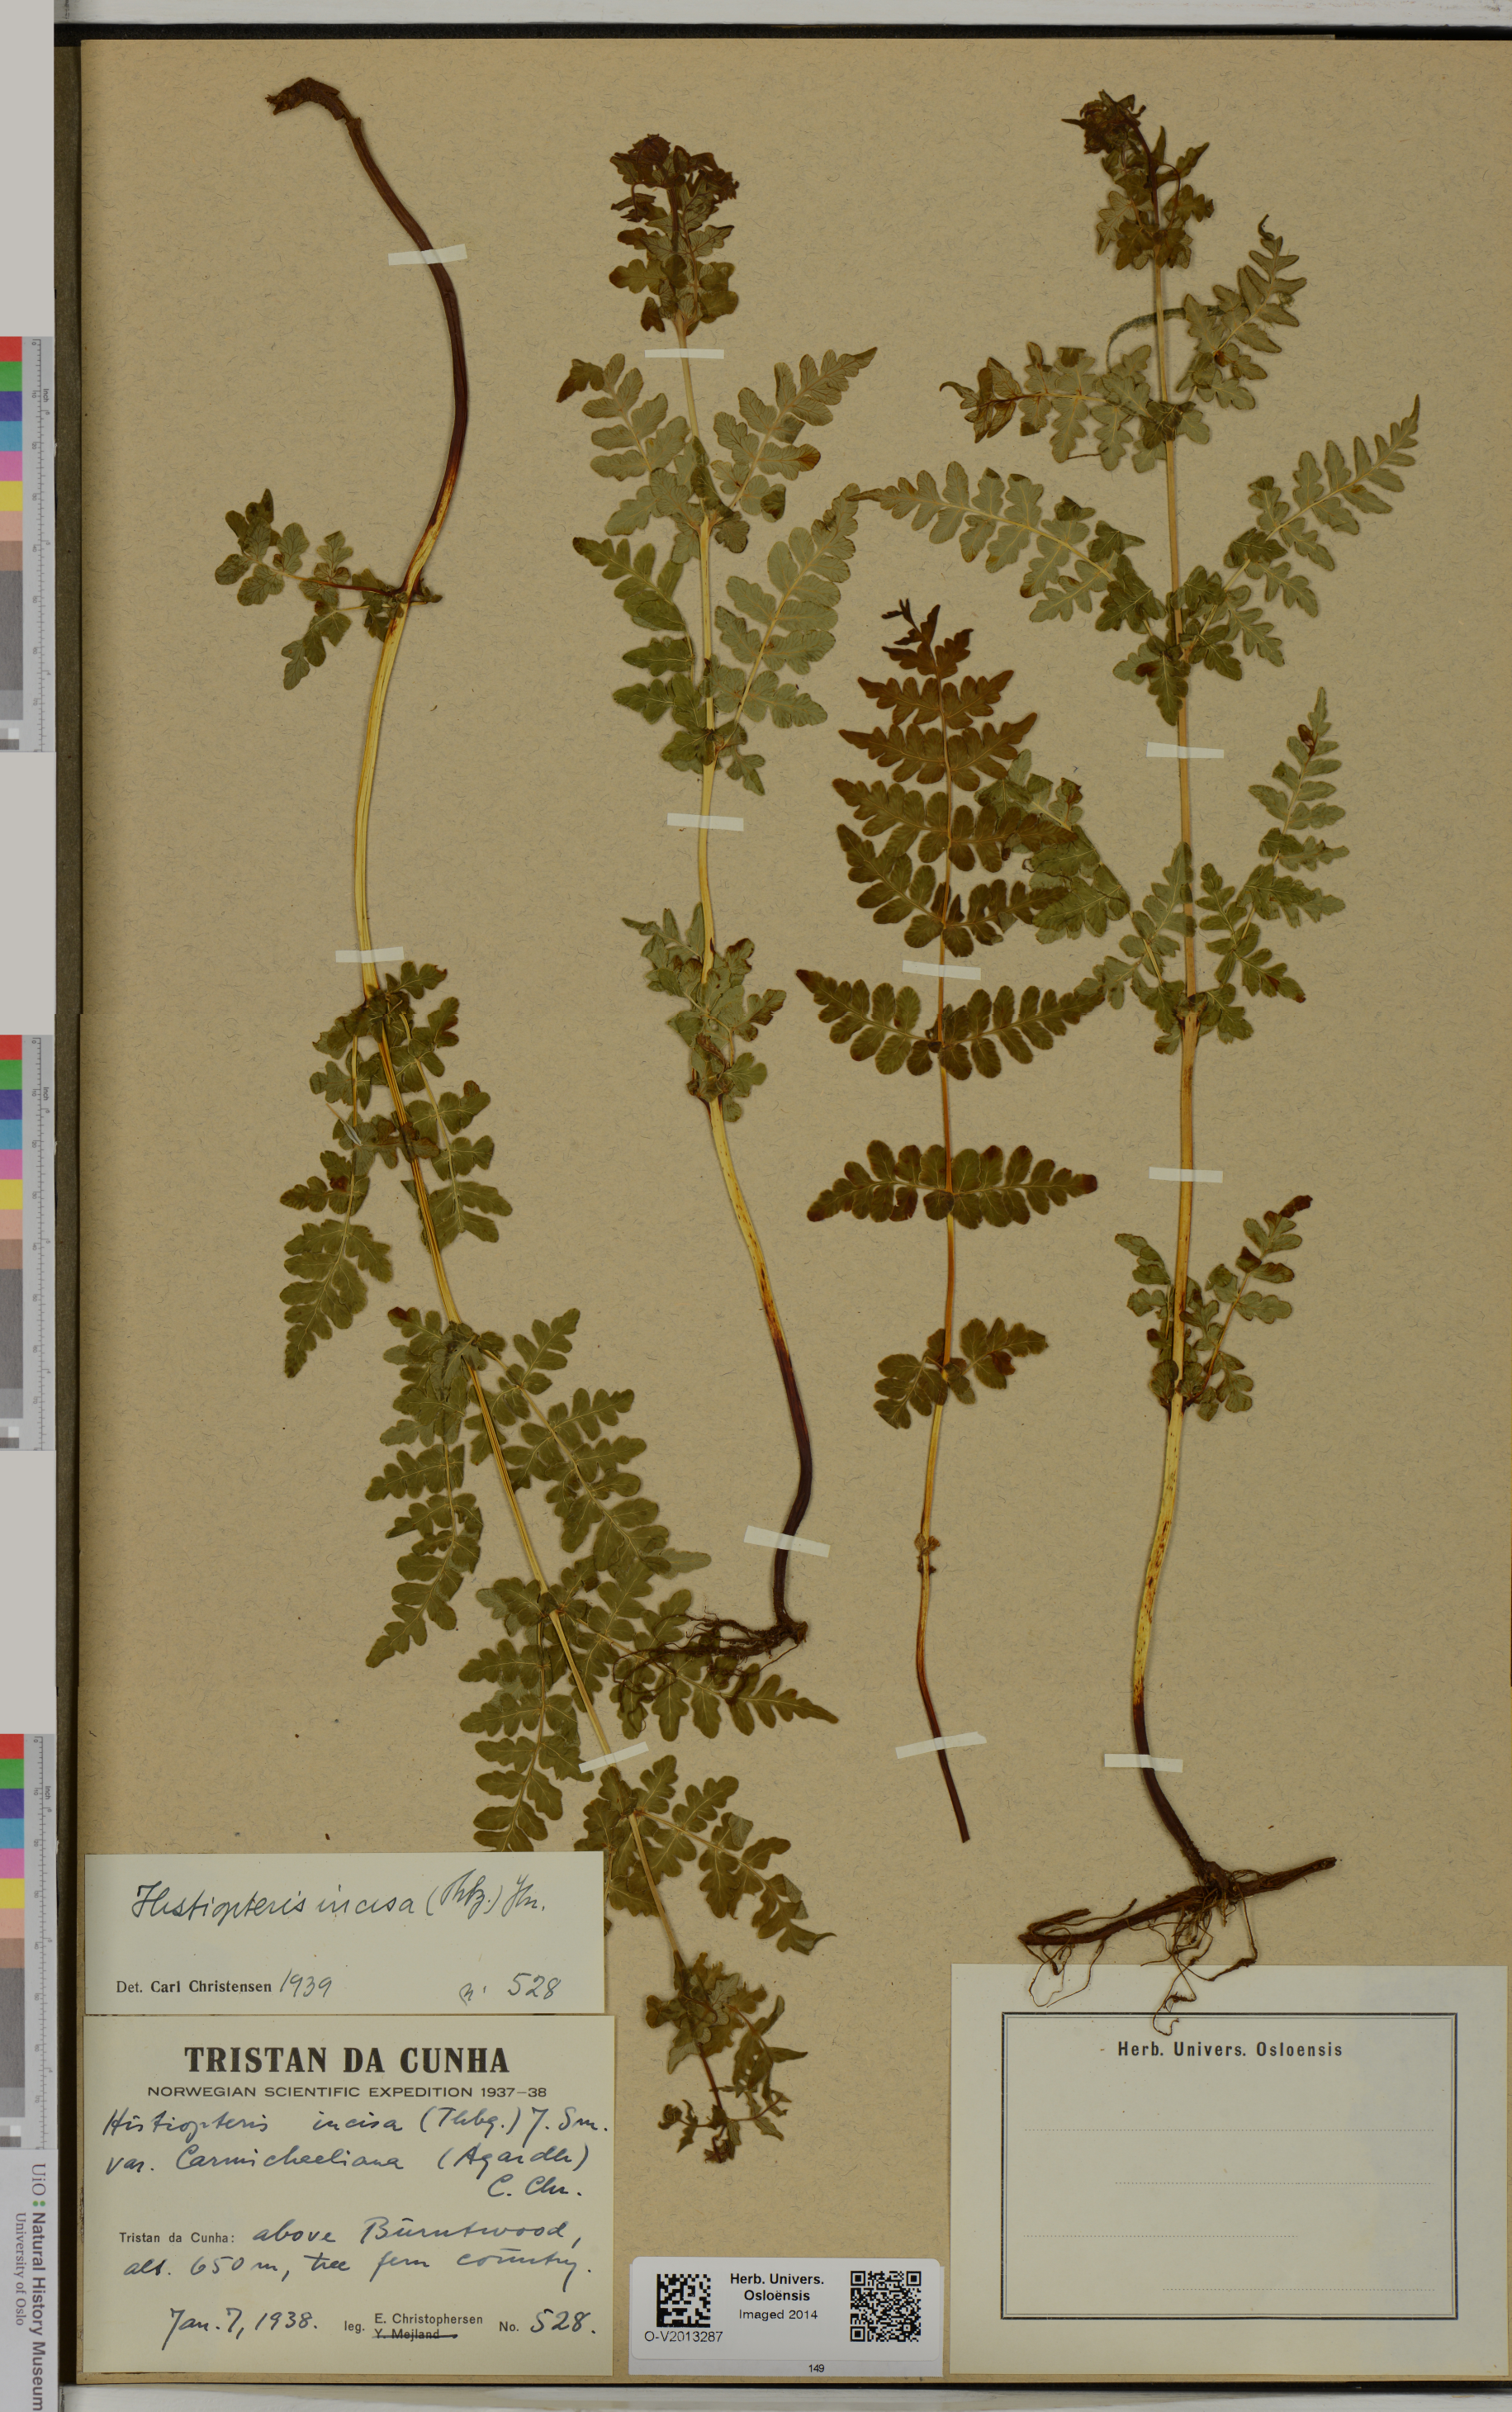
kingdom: Plantae
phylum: Tracheophyta
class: Polypodiopsida
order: Polypodiales
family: Dennstaedtiaceae
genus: Histiopteris
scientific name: Histiopteris incisa
